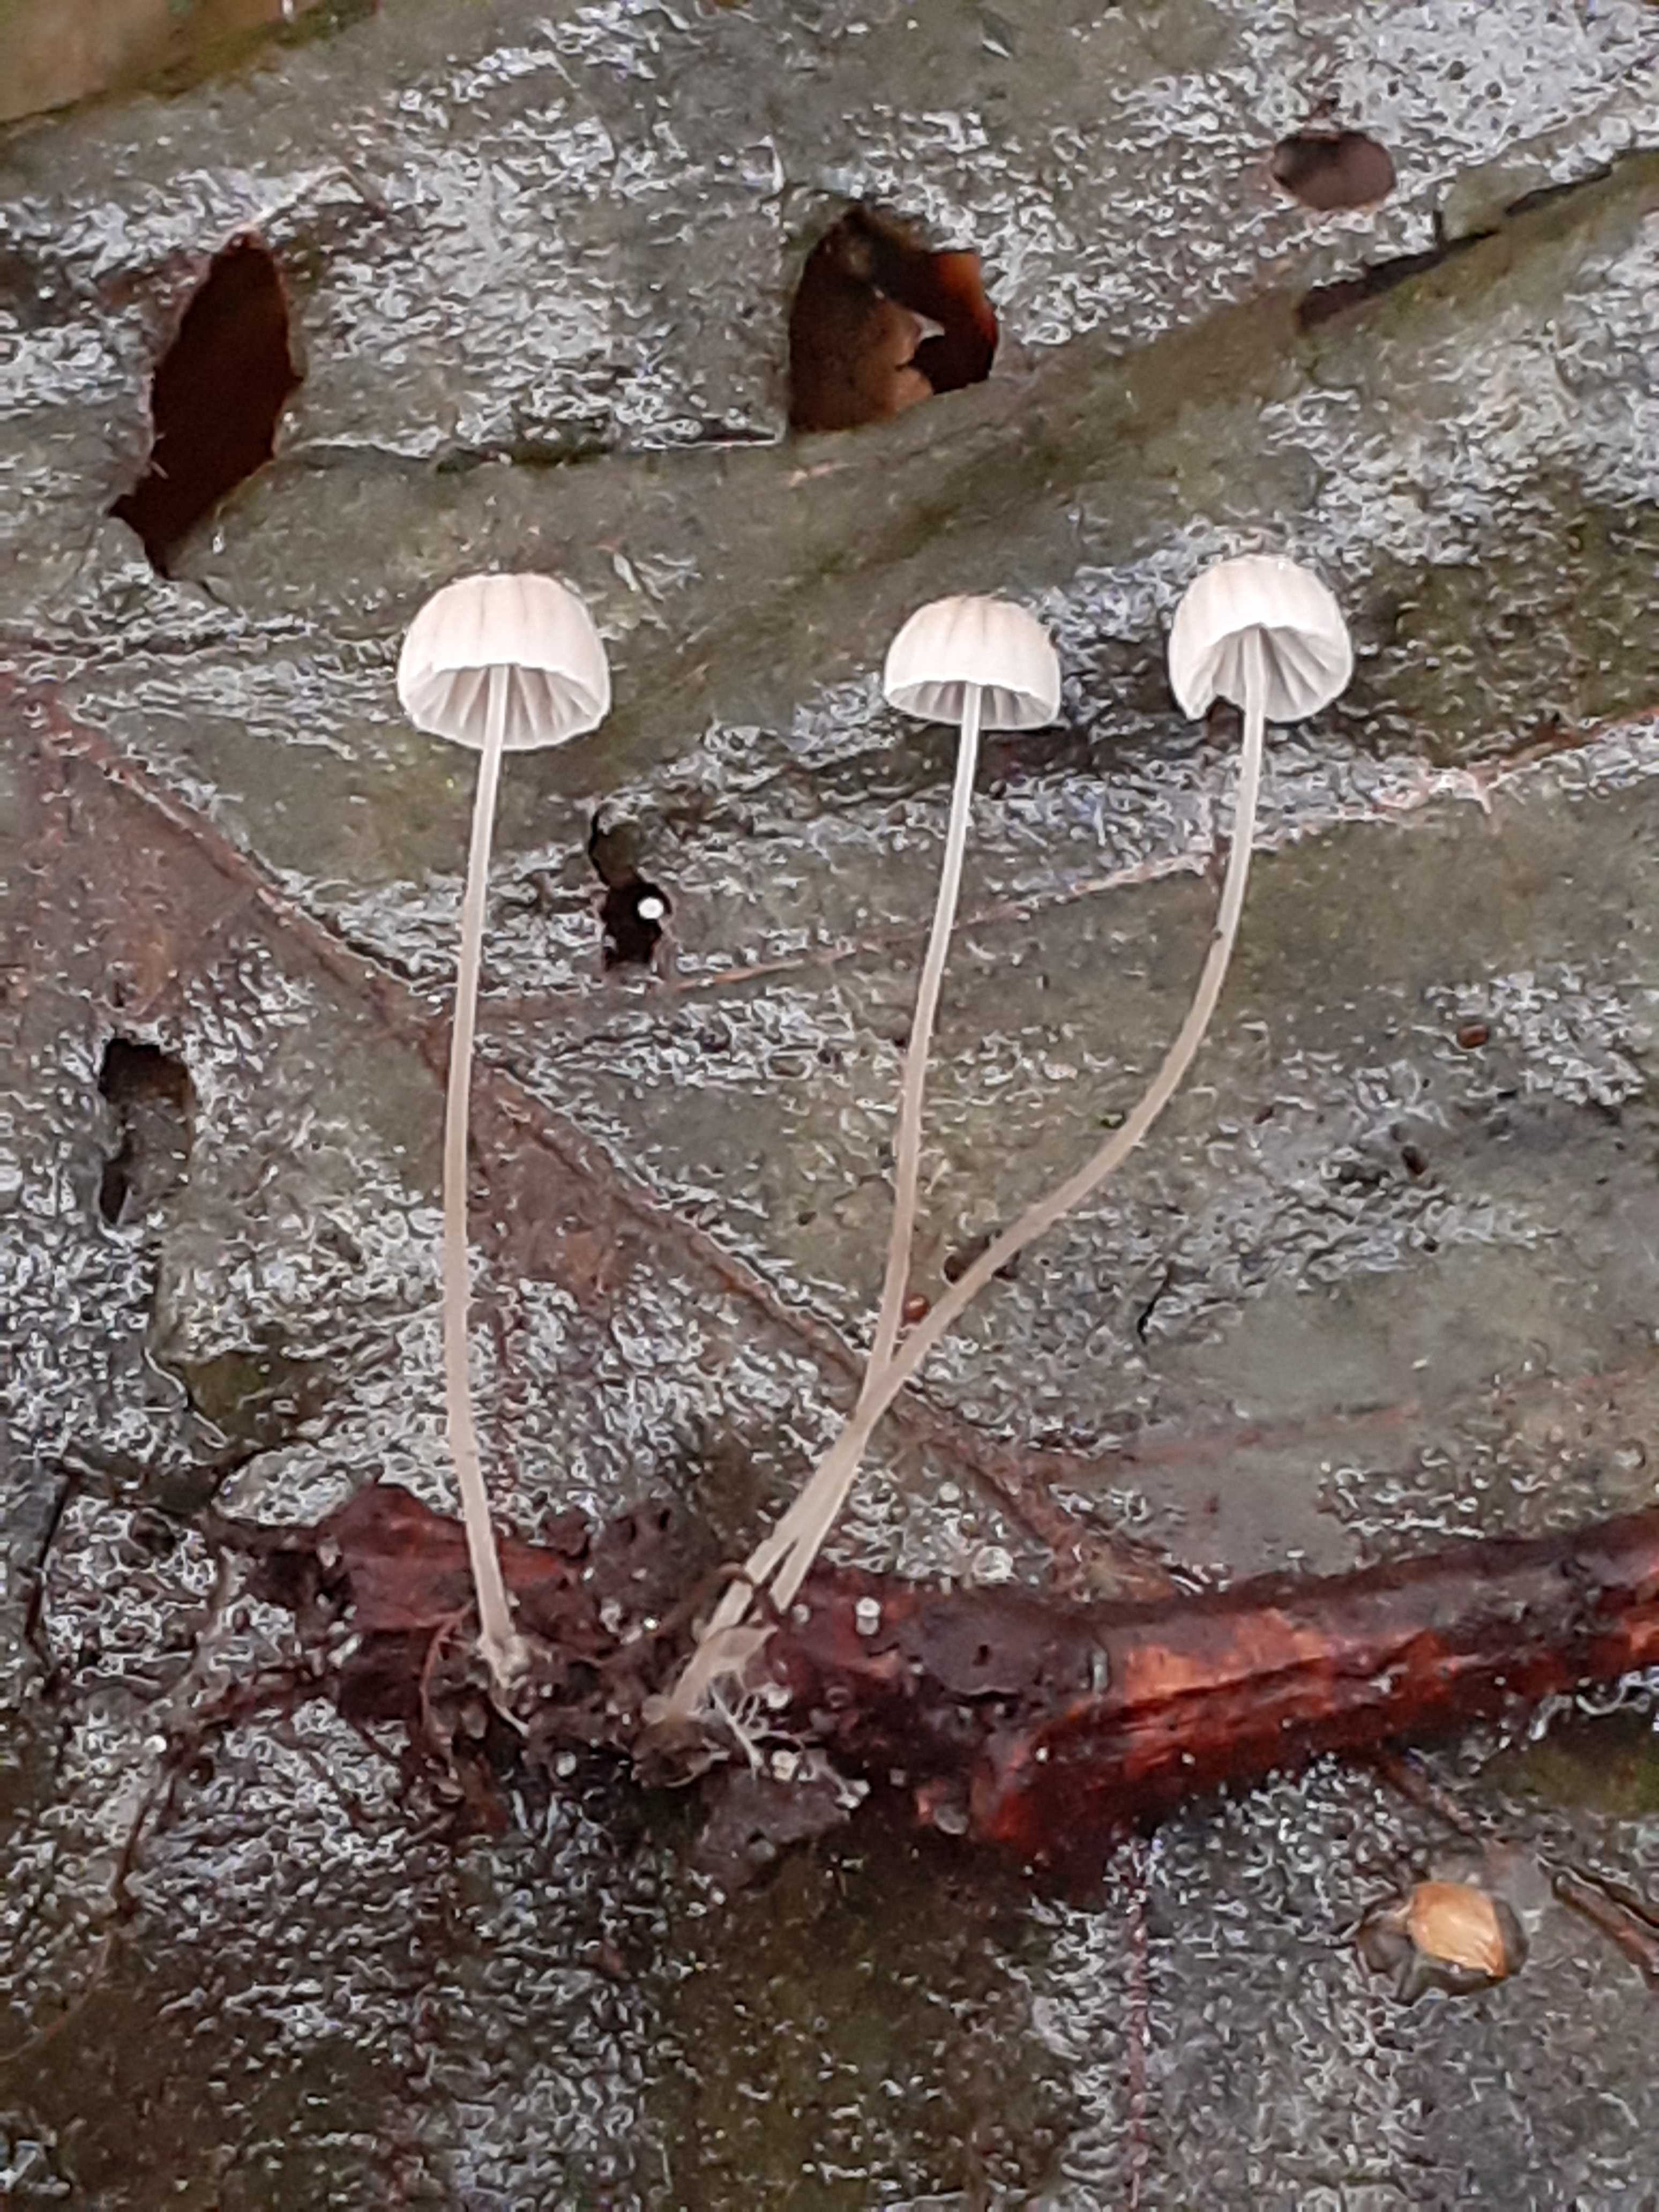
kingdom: Fungi
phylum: Basidiomycota
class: Agaricomycetes
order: Agaricales
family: Mycenaceae
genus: Mycena
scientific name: Mycena mirata
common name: krat-huesvamp
